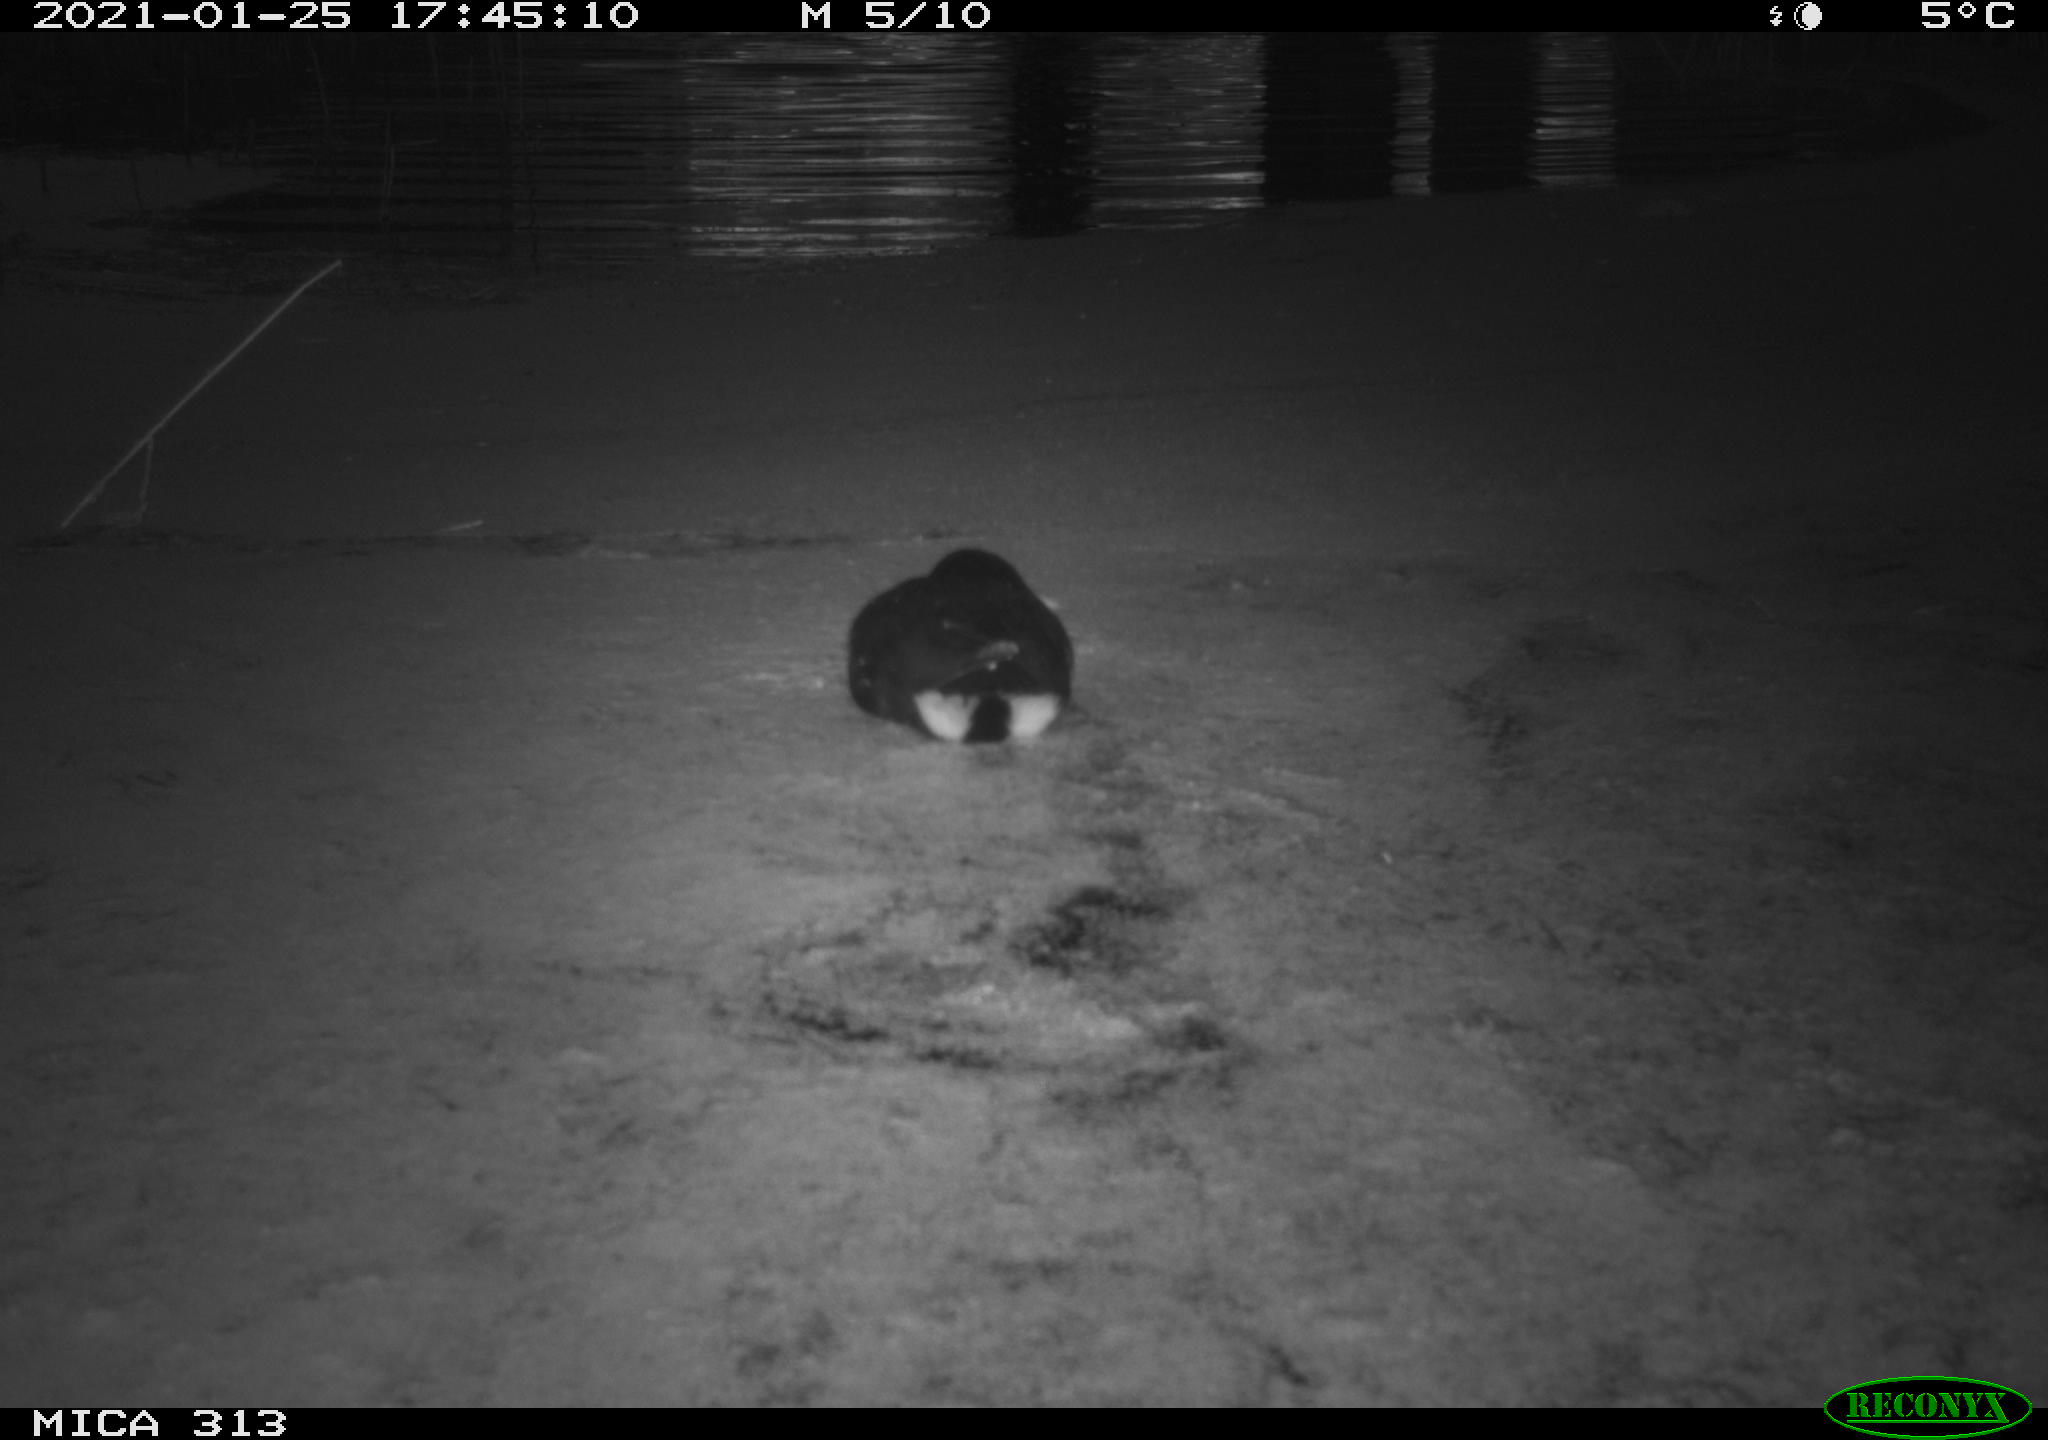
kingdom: Animalia
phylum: Chordata
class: Aves
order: Gruiformes
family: Rallidae
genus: Fulica
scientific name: Fulica atra
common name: Eurasian coot
